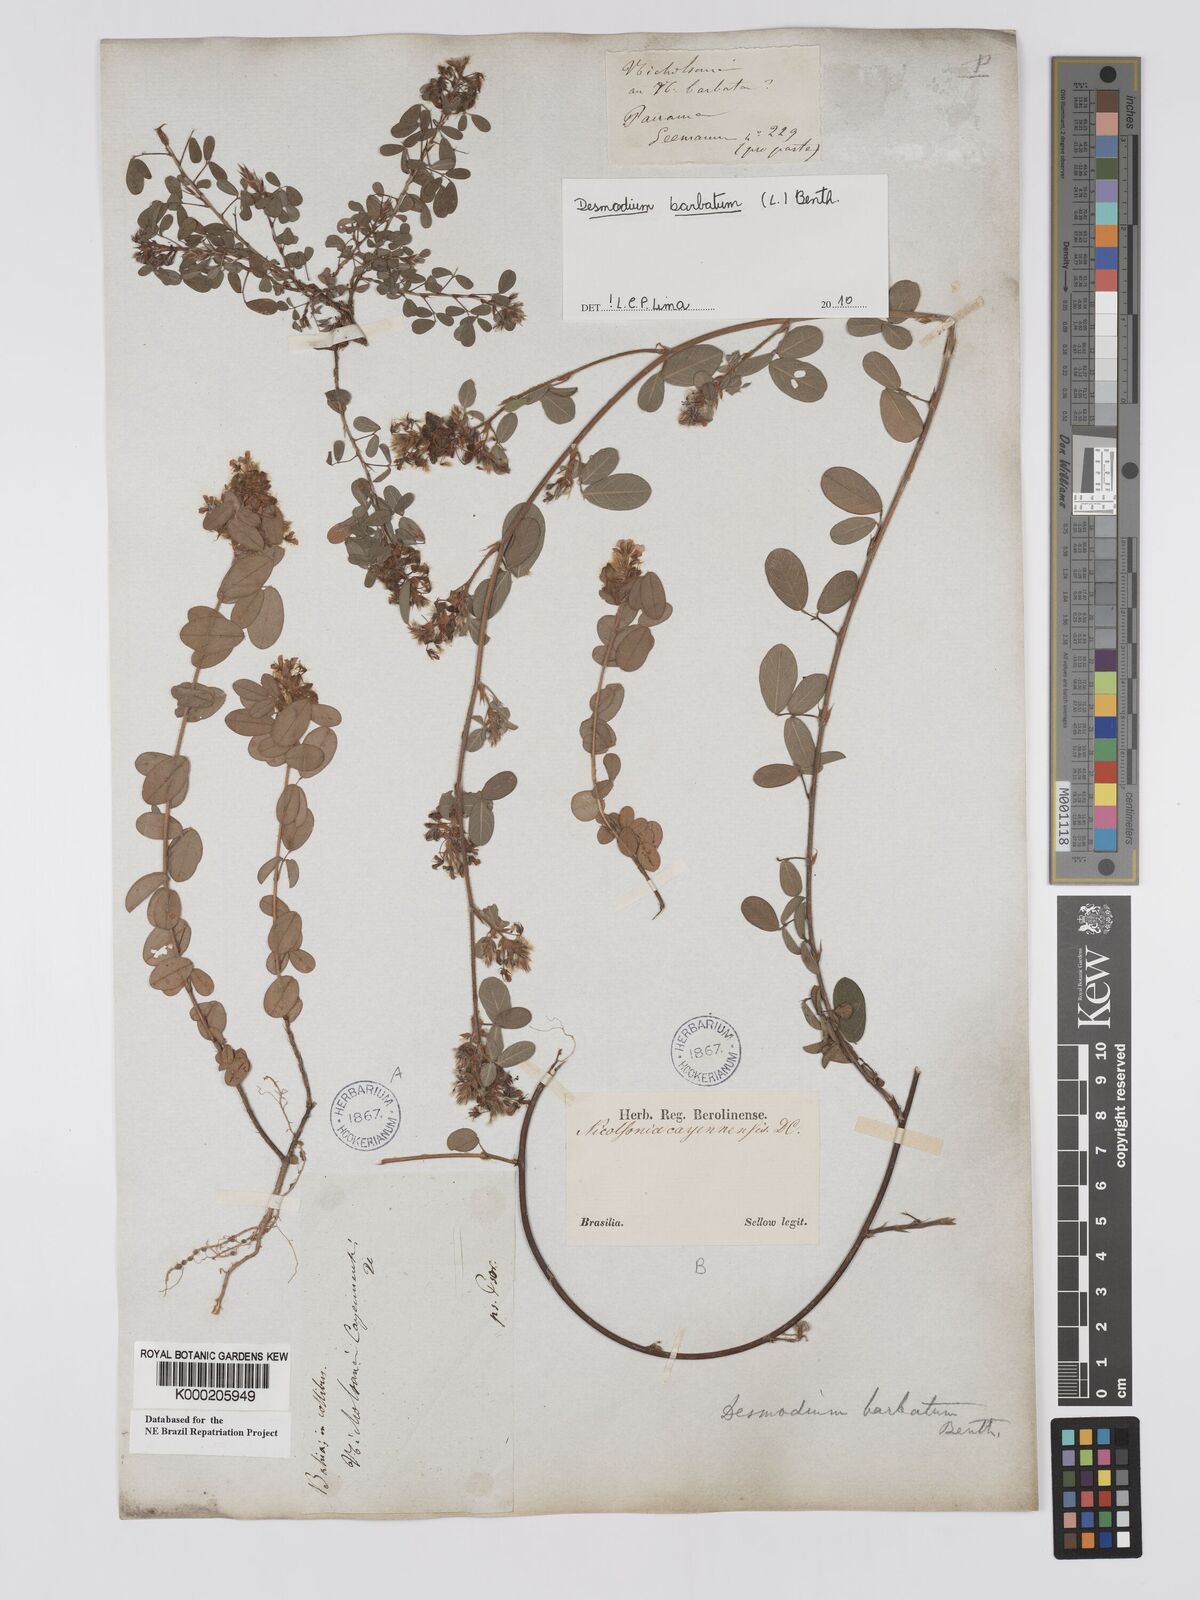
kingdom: Plantae
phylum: Tracheophyta
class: Magnoliopsida
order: Fabales
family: Fabaceae
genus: Grona
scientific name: Grona barbata
